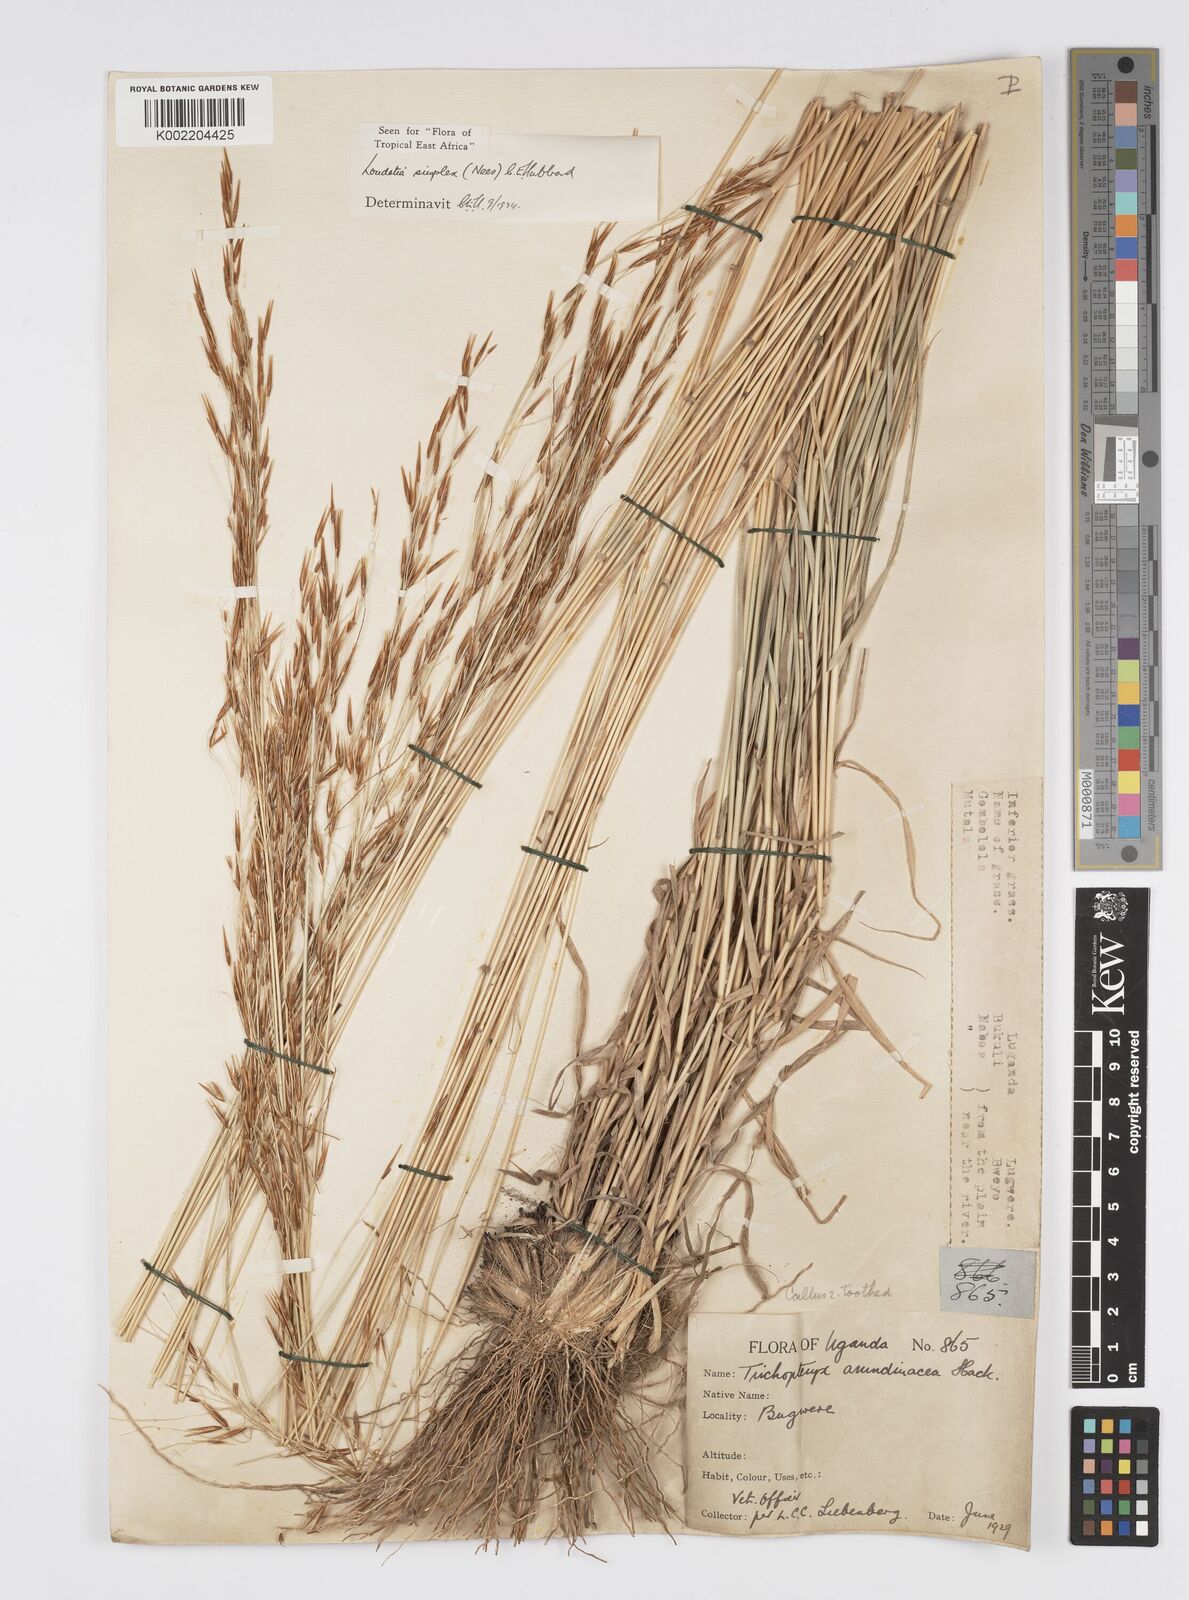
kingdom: Plantae
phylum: Tracheophyta
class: Liliopsida
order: Poales
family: Poaceae
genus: Loudetia
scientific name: Loudetia simplex
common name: Common russet grass
